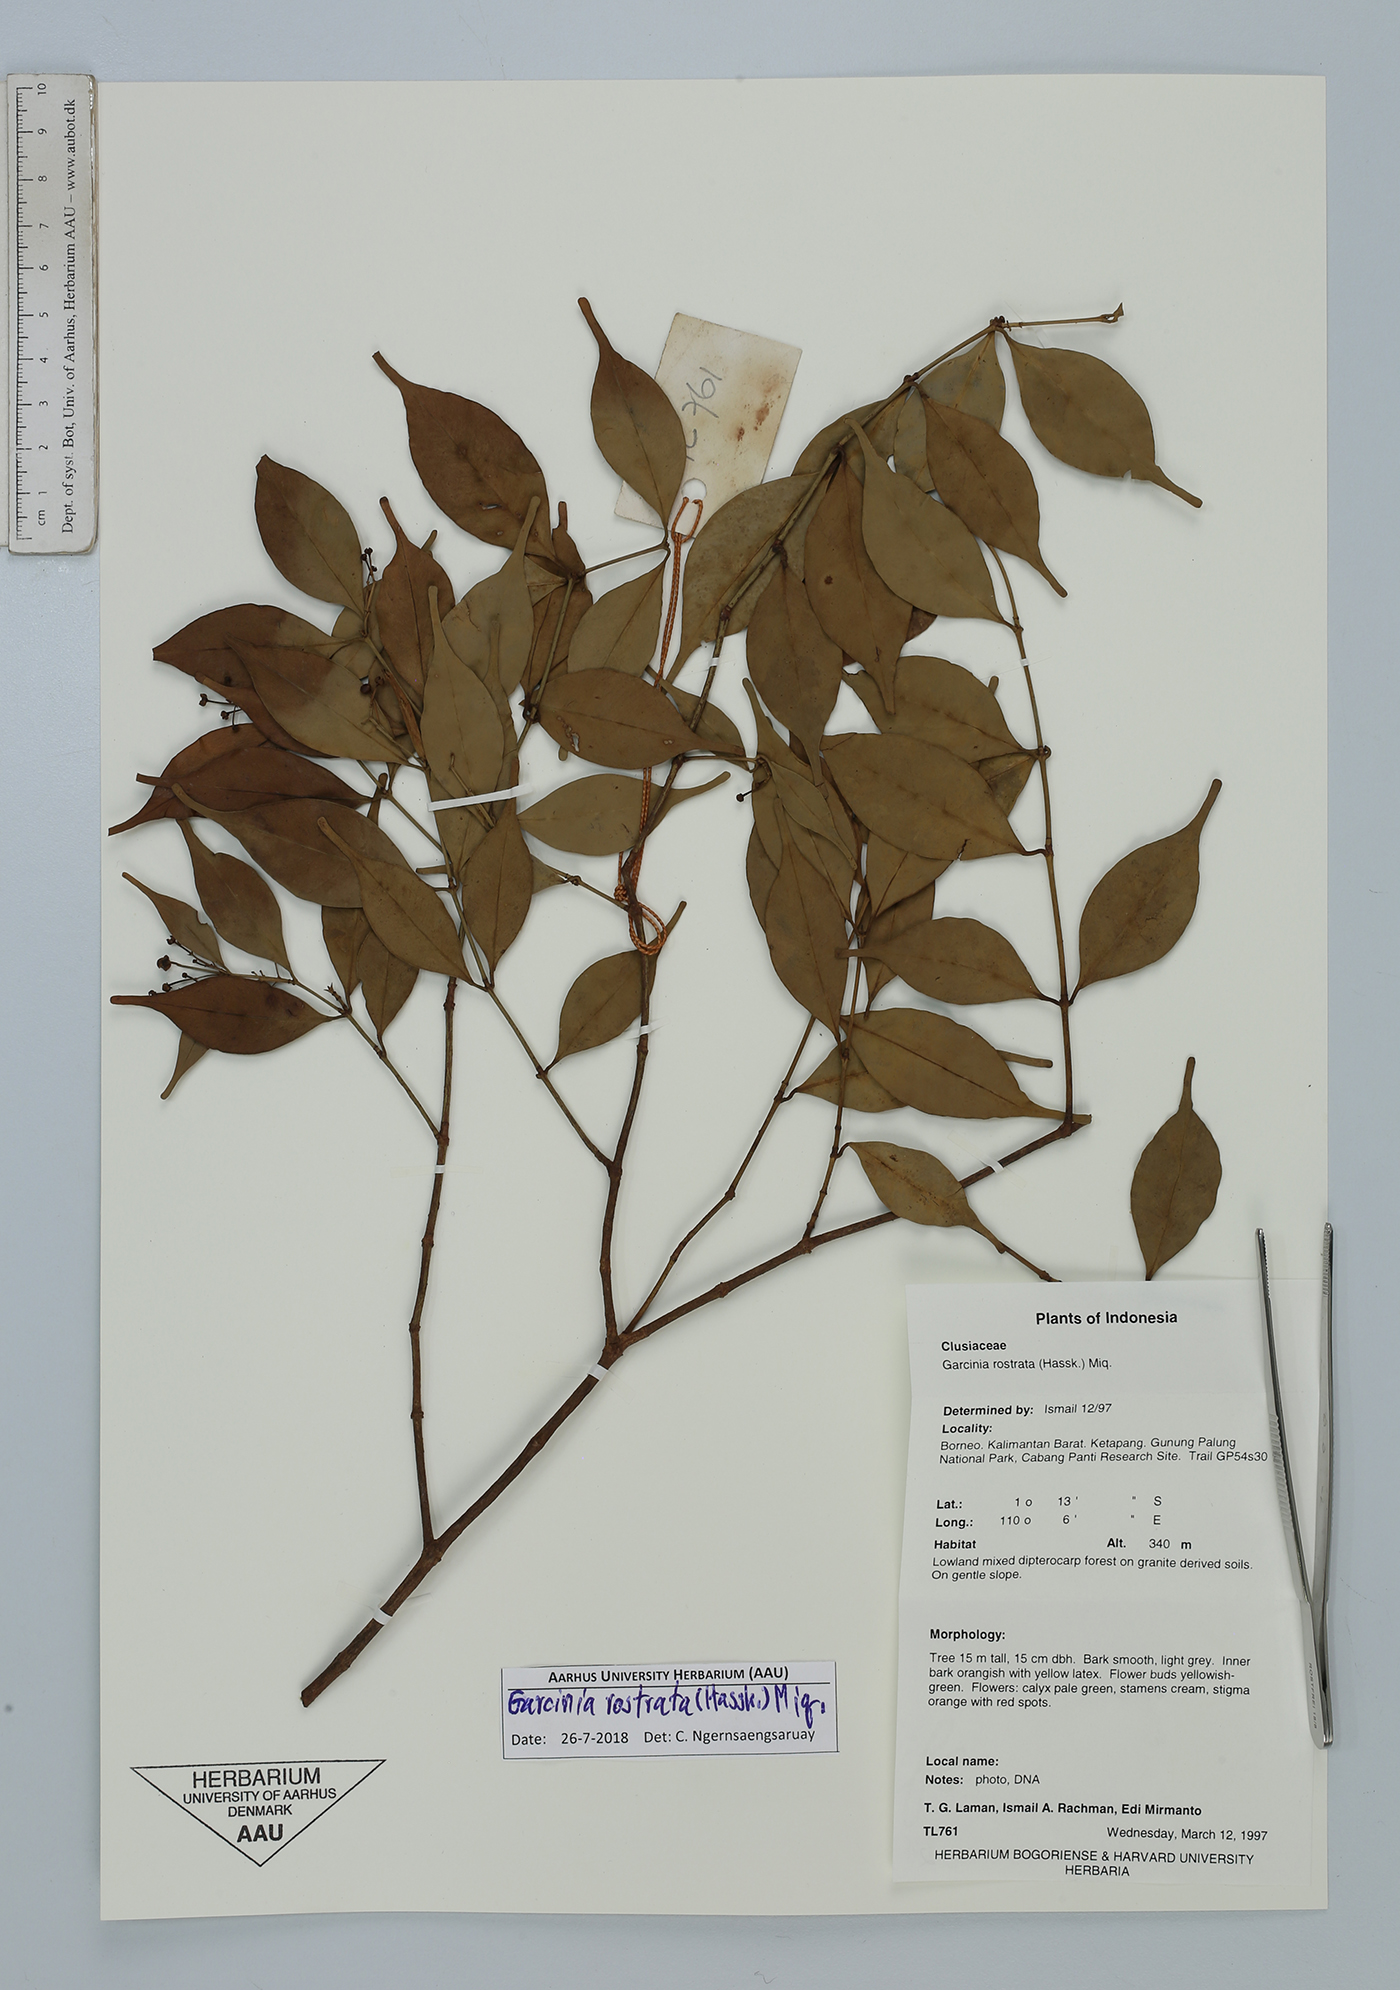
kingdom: Plantae
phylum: Tracheophyta
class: Magnoliopsida
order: Malpighiales
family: Clusiaceae
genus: Garcinia
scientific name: Garcinia rostrata
